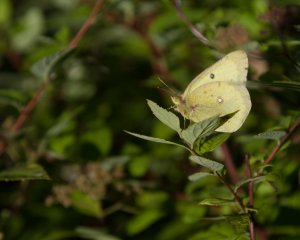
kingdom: Animalia
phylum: Arthropoda
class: Insecta
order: Lepidoptera
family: Pieridae
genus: Colias
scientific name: Colias philodice
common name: Clouded Sulphur
